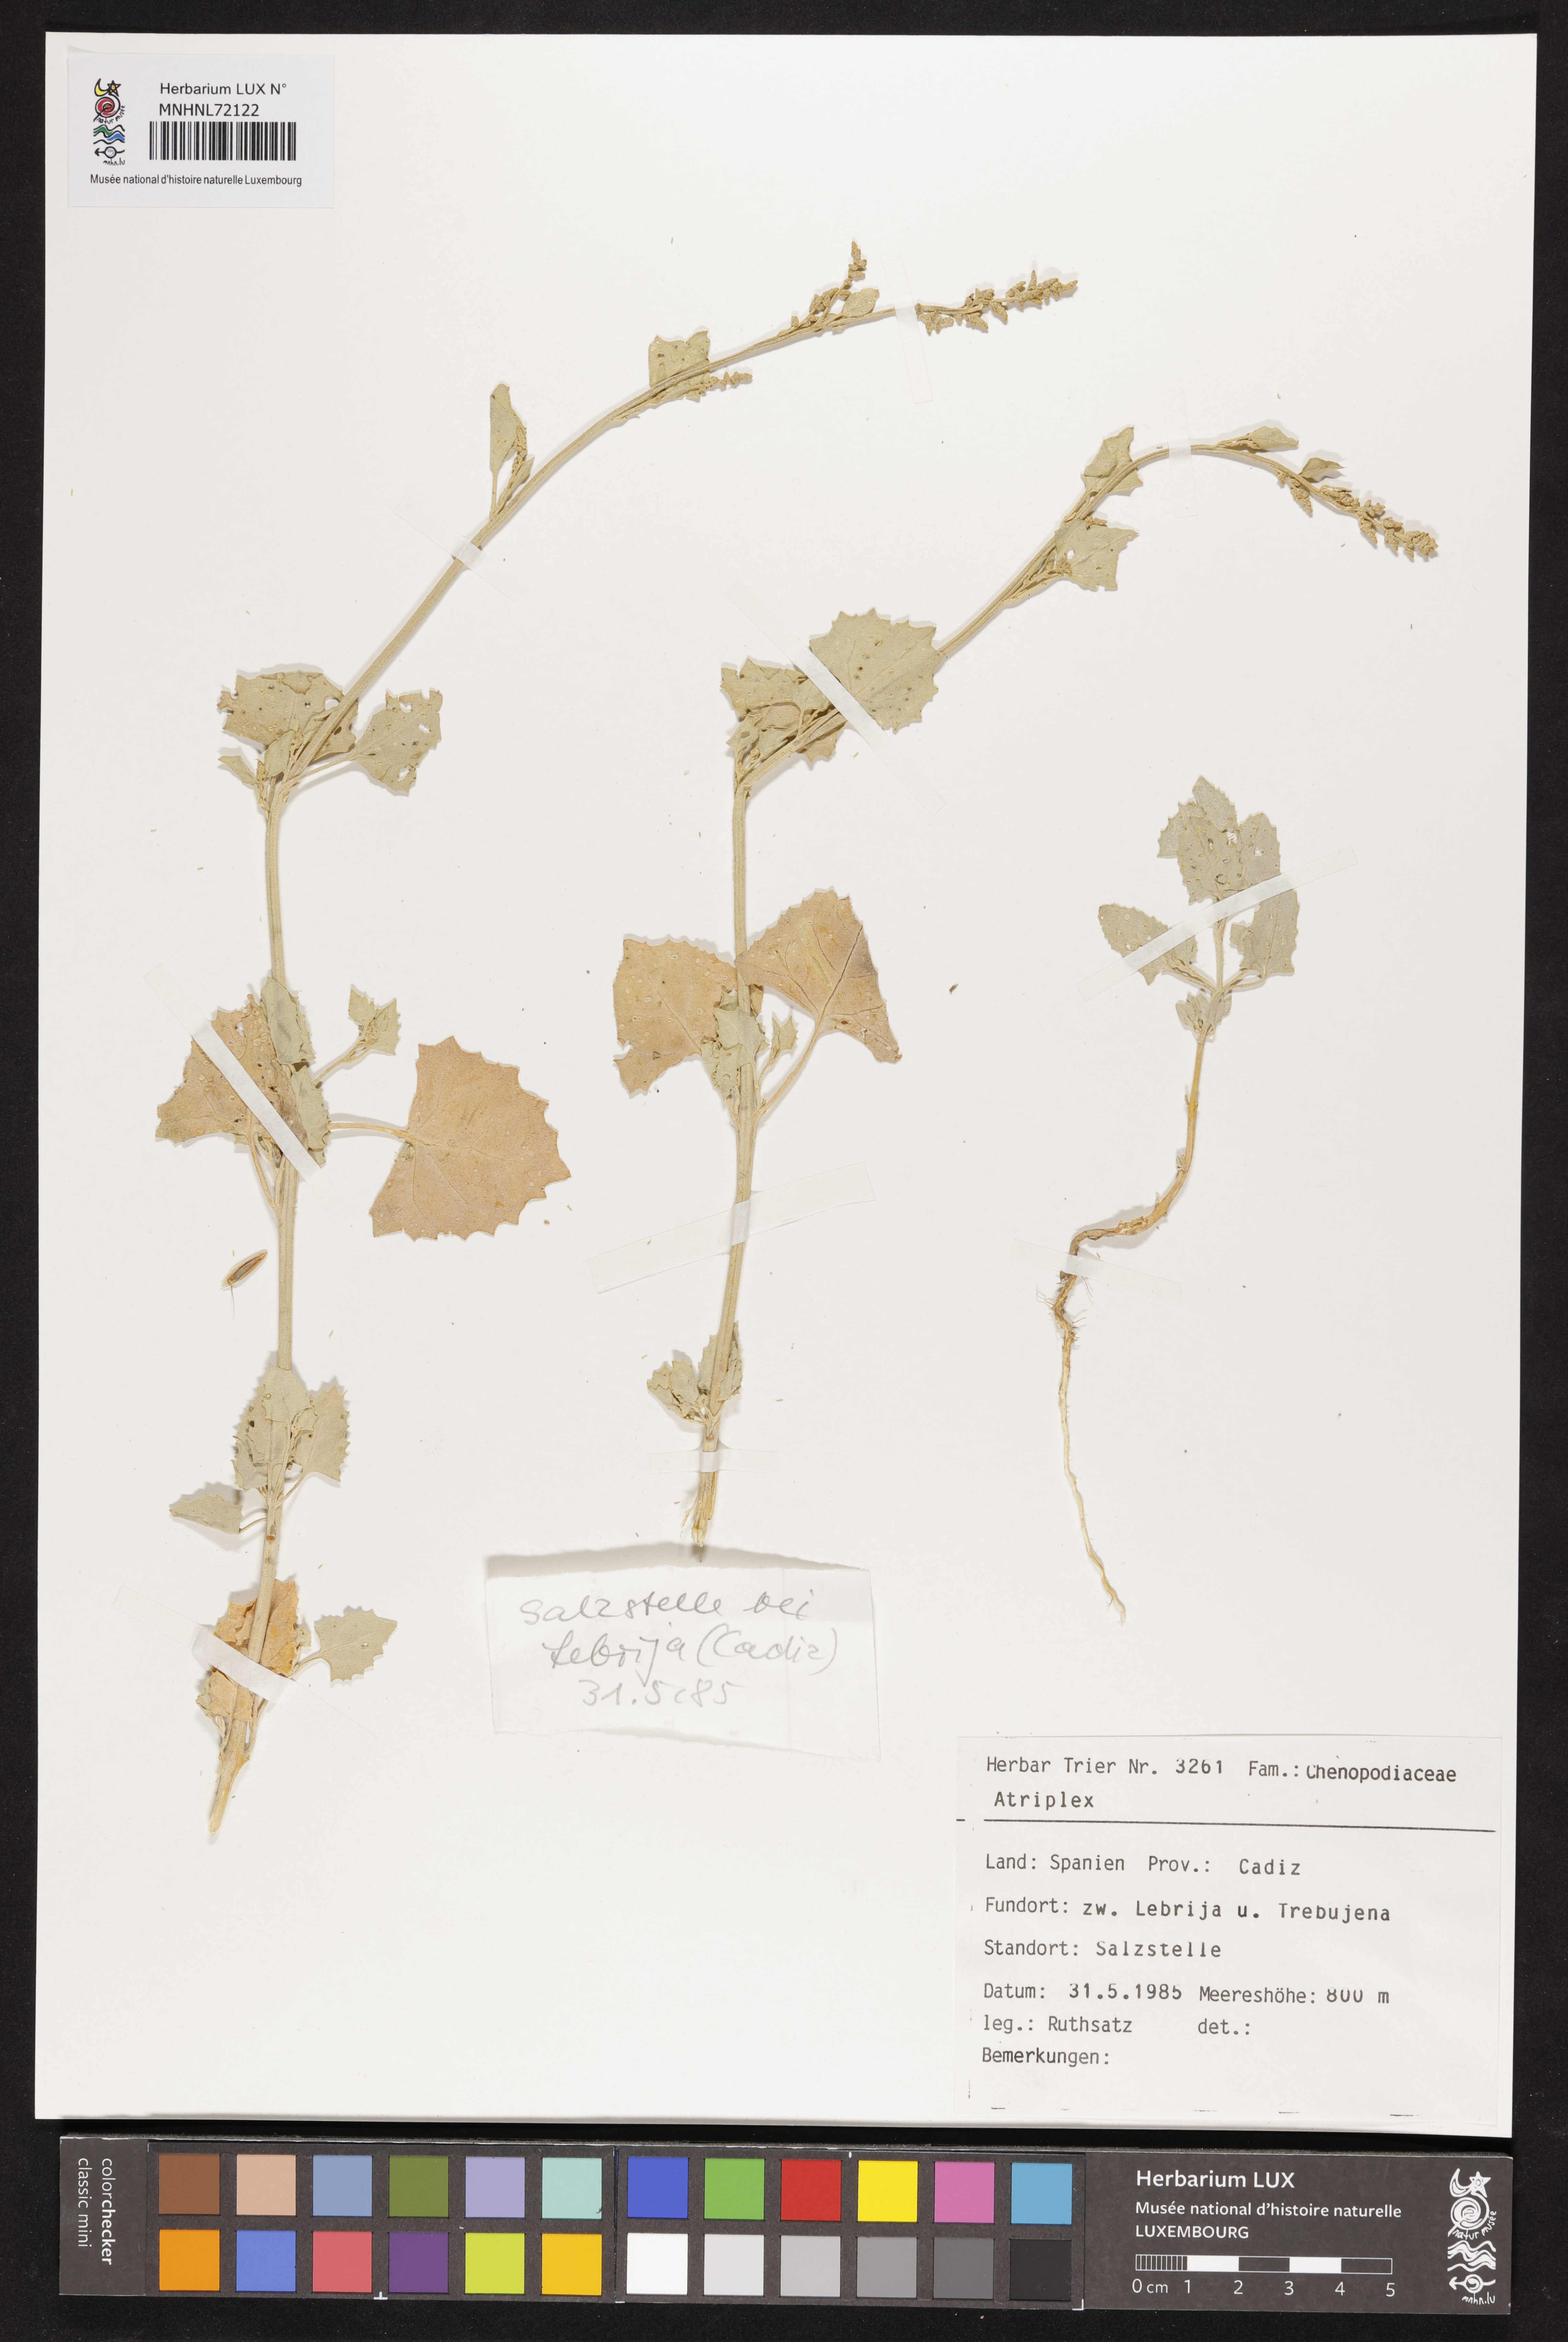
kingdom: Plantae
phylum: Tracheophyta
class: Magnoliopsida
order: Caryophyllales
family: Amaranthaceae
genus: Atriplex
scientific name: Atriplex
